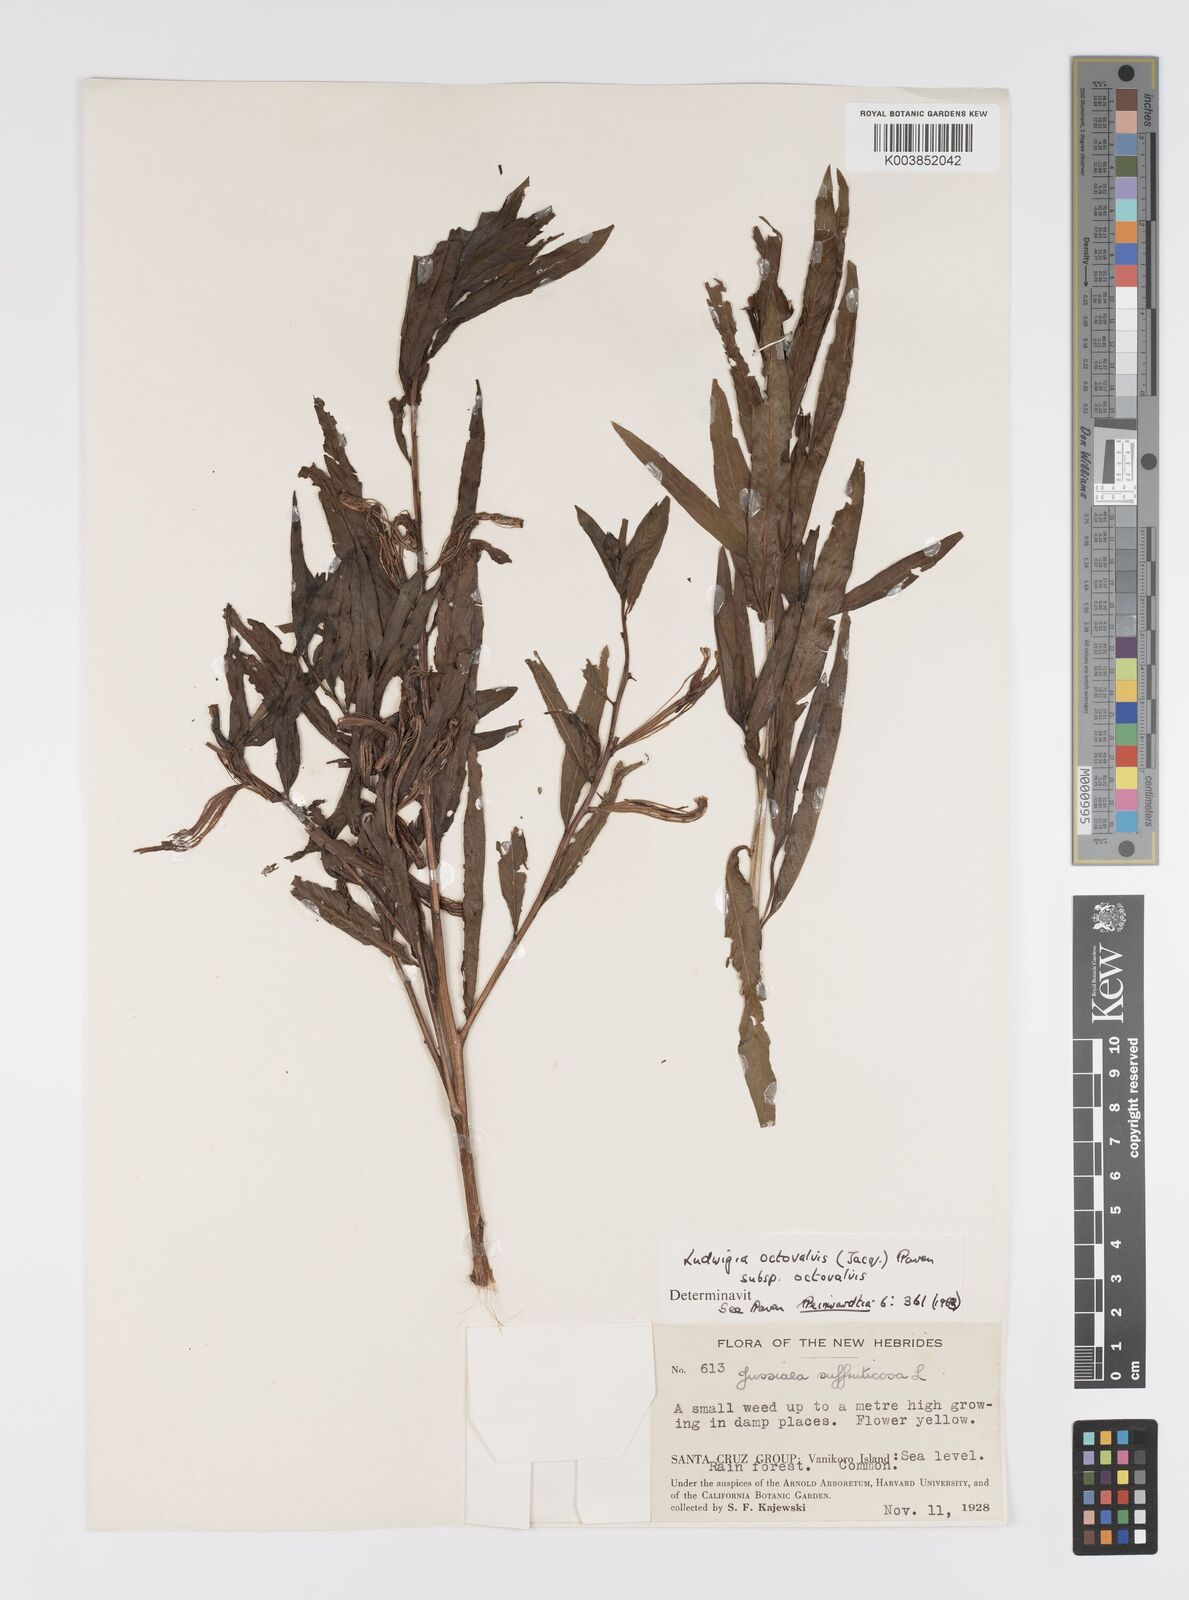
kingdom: Plantae
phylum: Tracheophyta
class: Magnoliopsida
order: Myrtales
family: Onagraceae
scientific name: Onagraceae
